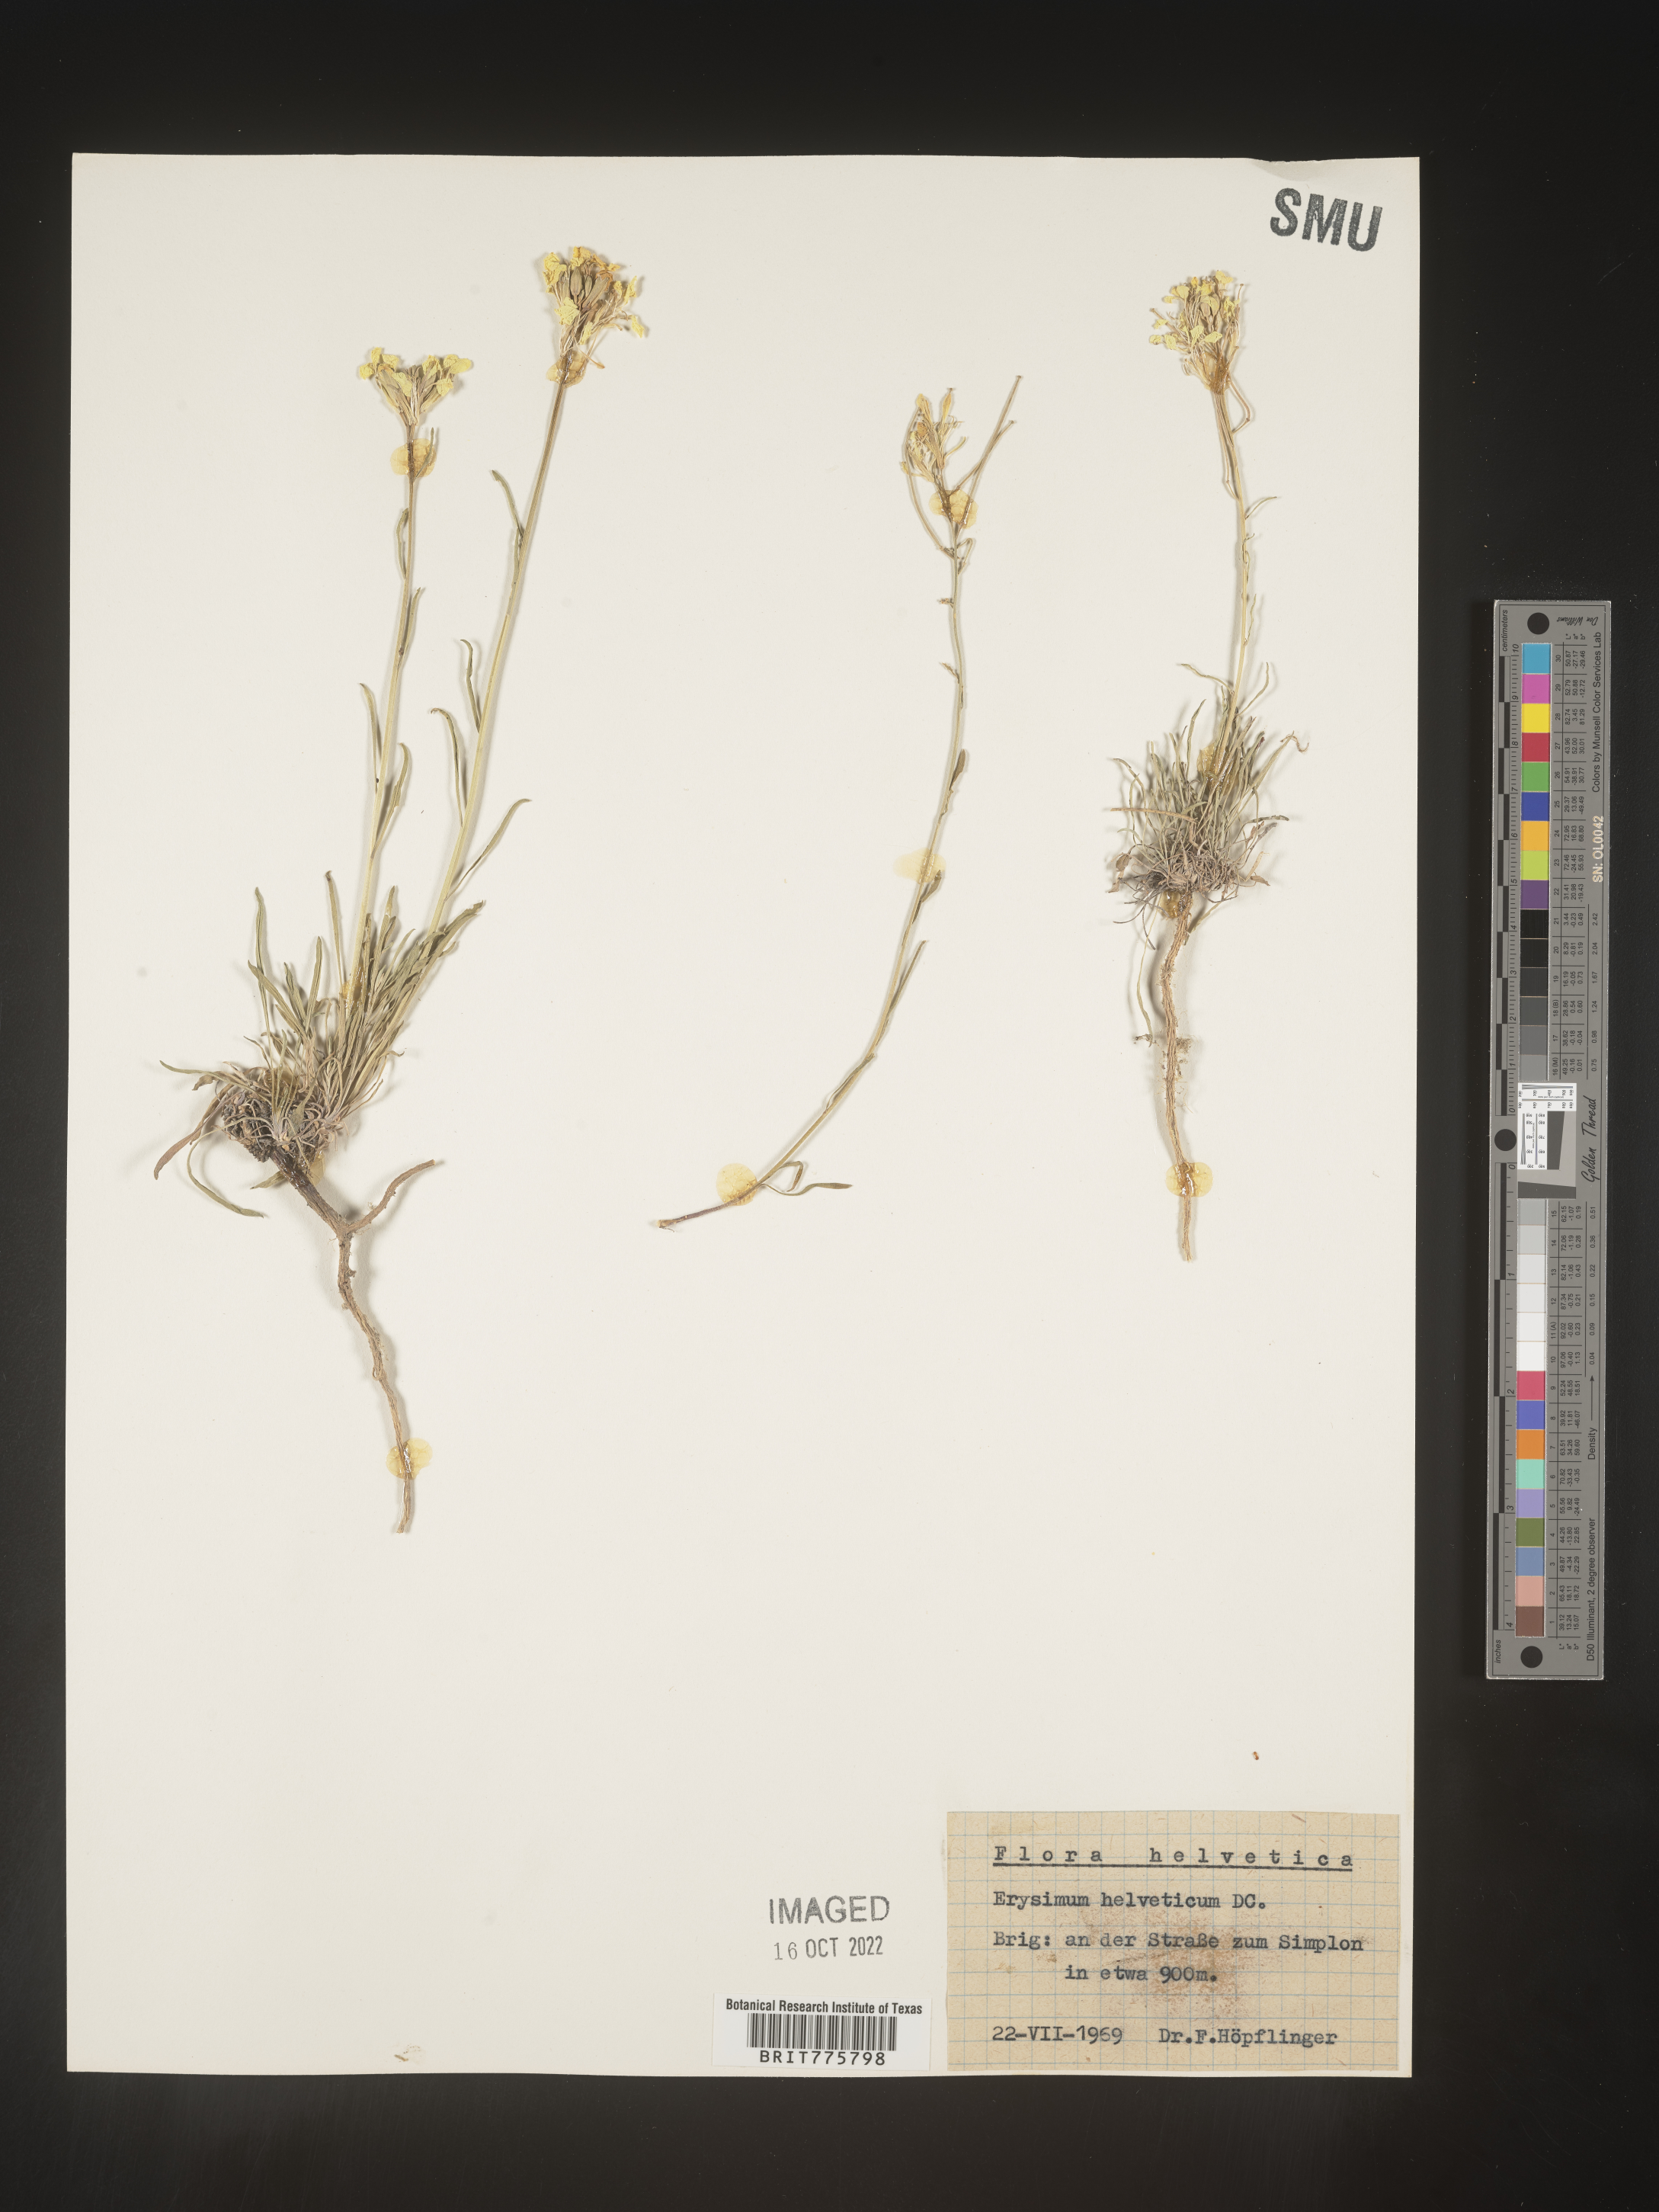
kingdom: Plantae
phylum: Tracheophyta
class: Magnoliopsida
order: Brassicales
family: Brassicaceae
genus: Erysimum
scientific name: Erysimum
